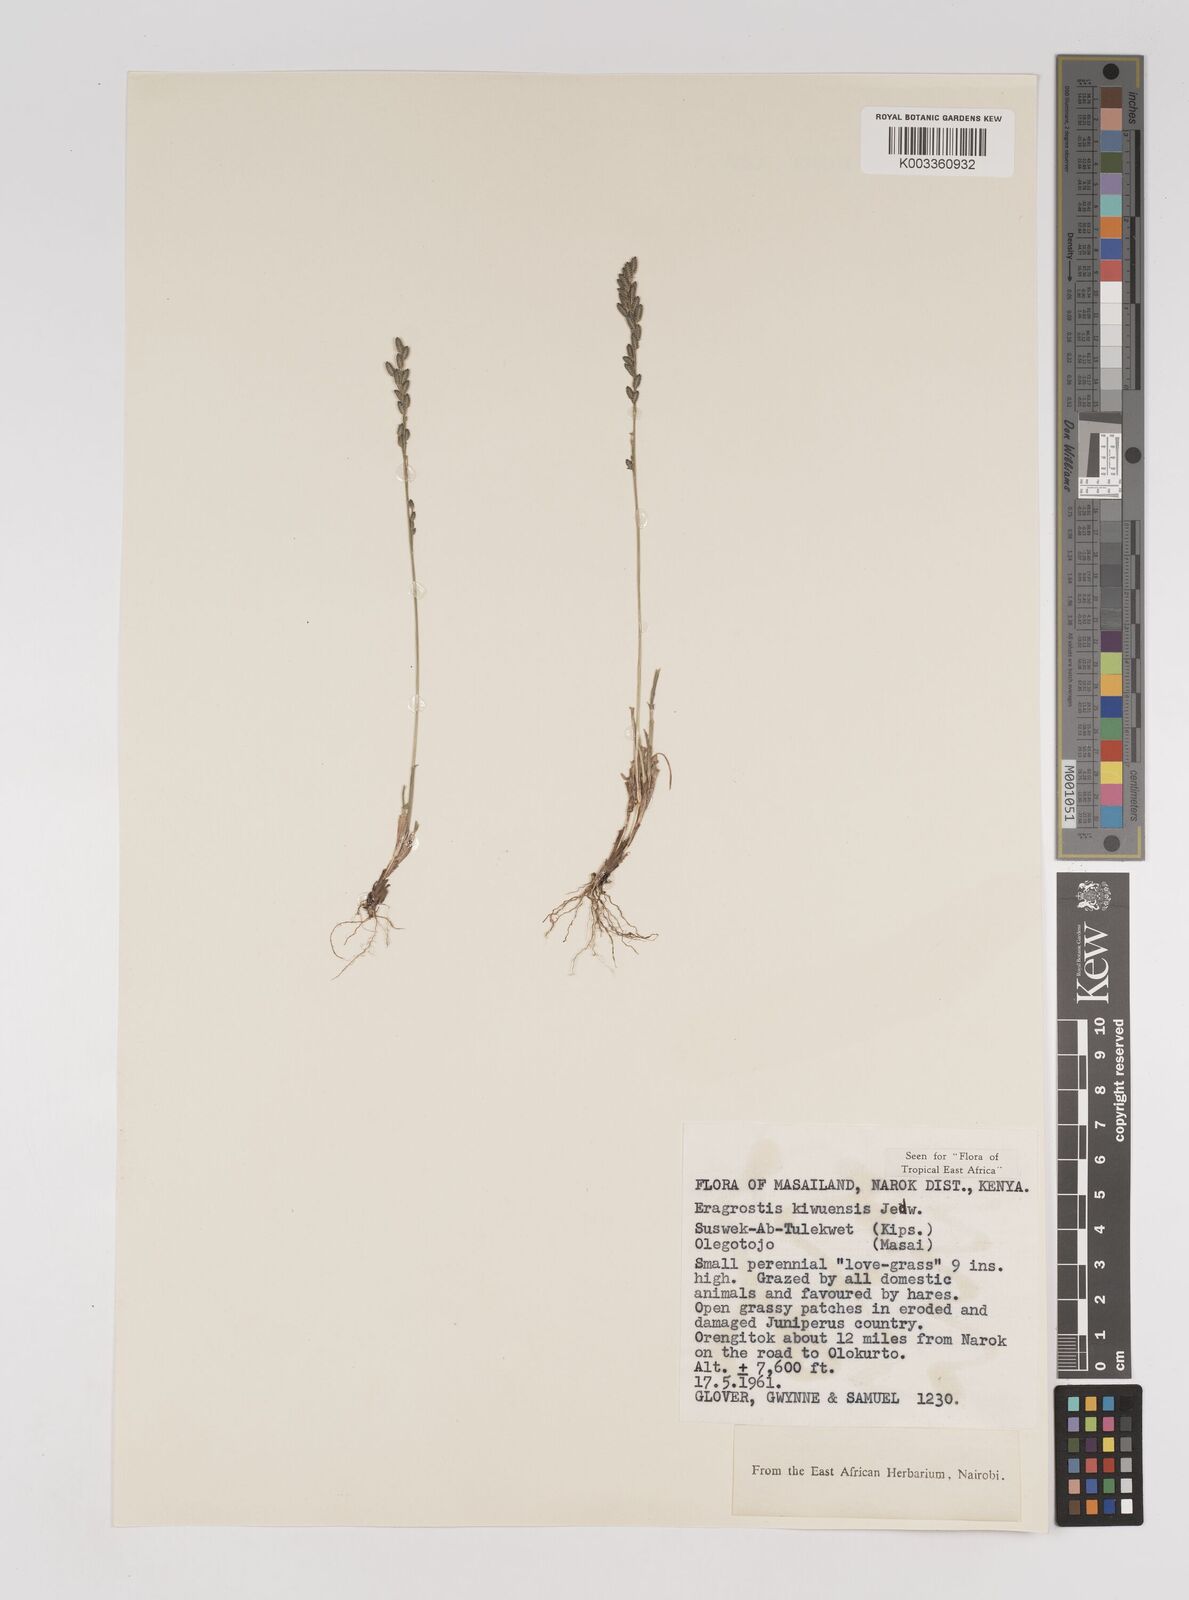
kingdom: Plantae
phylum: Tracheophyta
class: Liliopsida
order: Poales
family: Poaceae
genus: Eragrostis
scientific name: Eragrostis schweinfurthii
